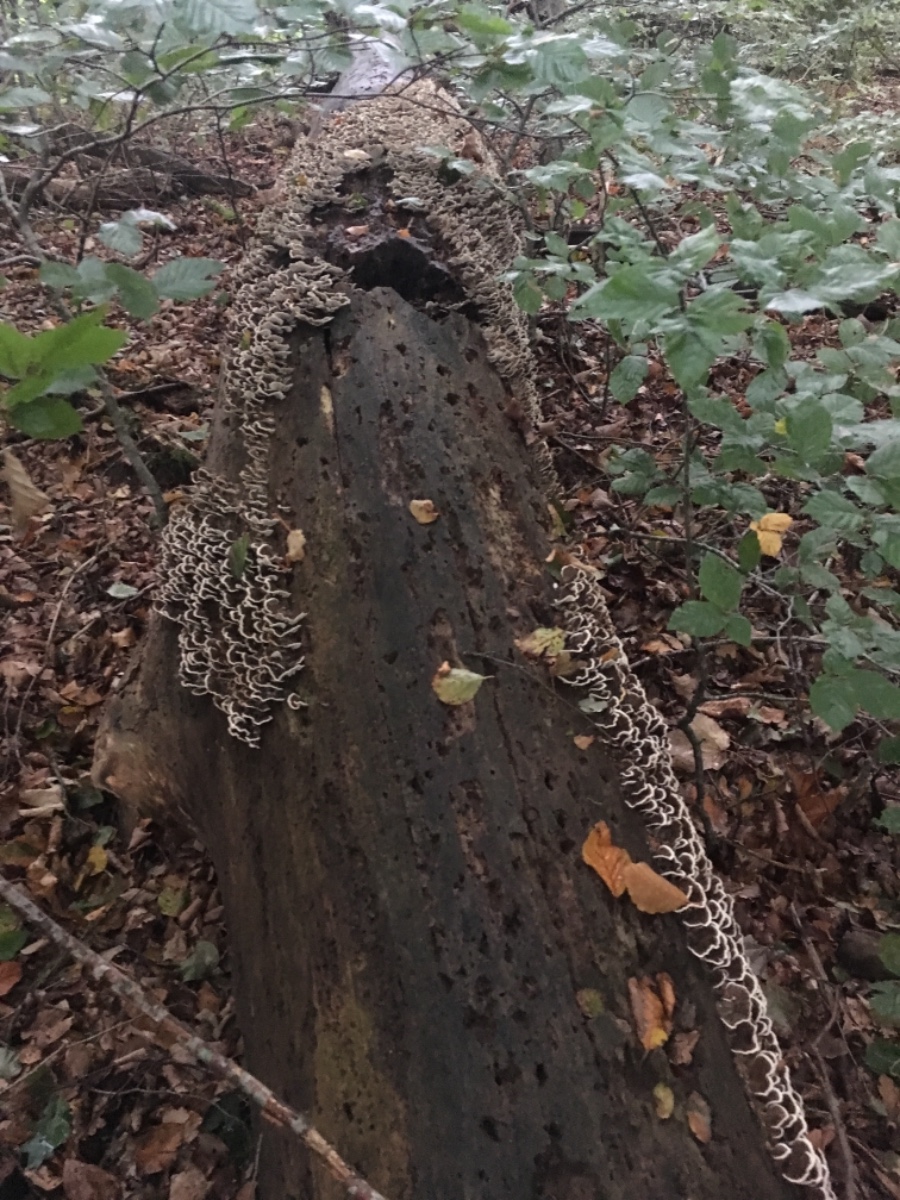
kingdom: Fungi
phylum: Basidiomycota
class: Agaricomycetes
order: Polyporales
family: Polyporaceae
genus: Trametes
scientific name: Trametes versicolor
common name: broget læderporesvamp
